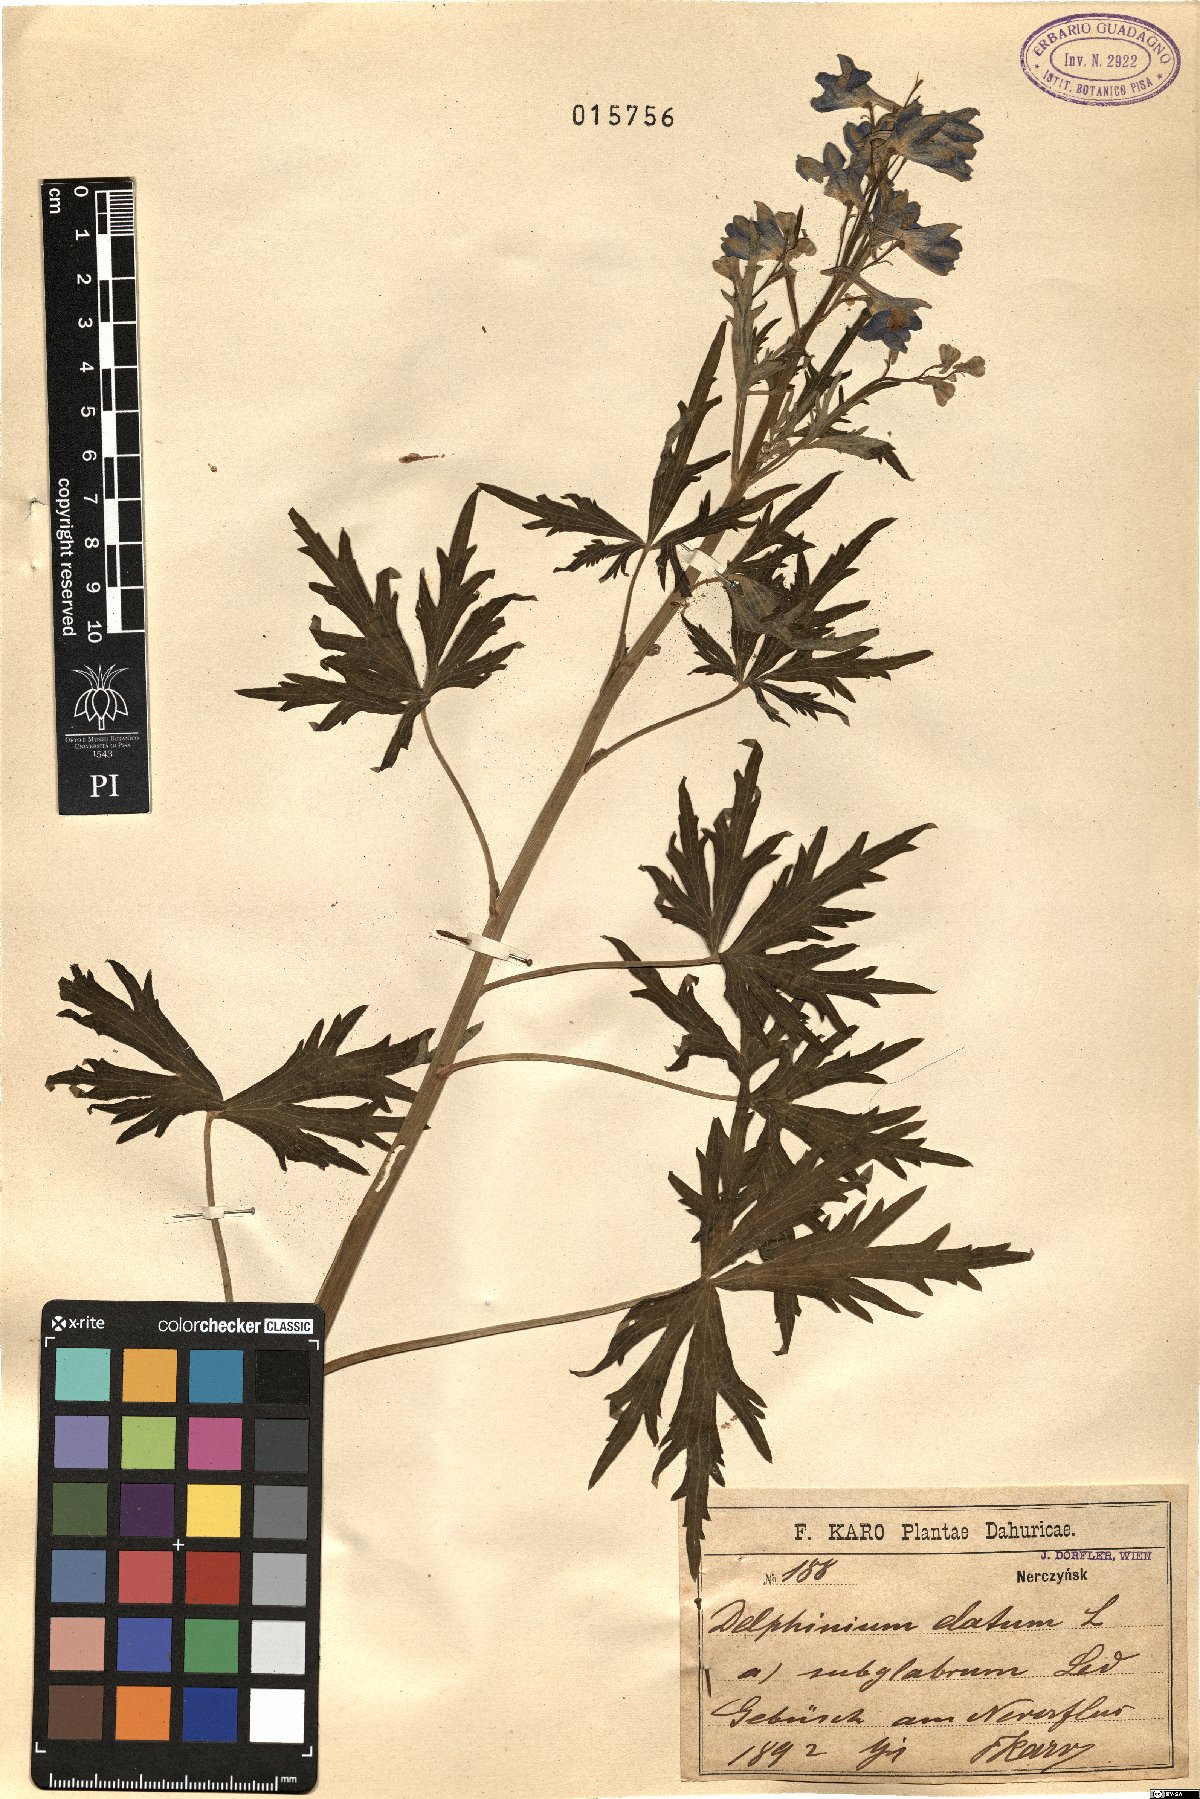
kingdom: Plantae
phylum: Tracheophyta
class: Magnoliopsida
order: Ranunculales
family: Ranunculaceae
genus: Delphinium
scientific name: Delphinium elatum
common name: Candle larkspur
